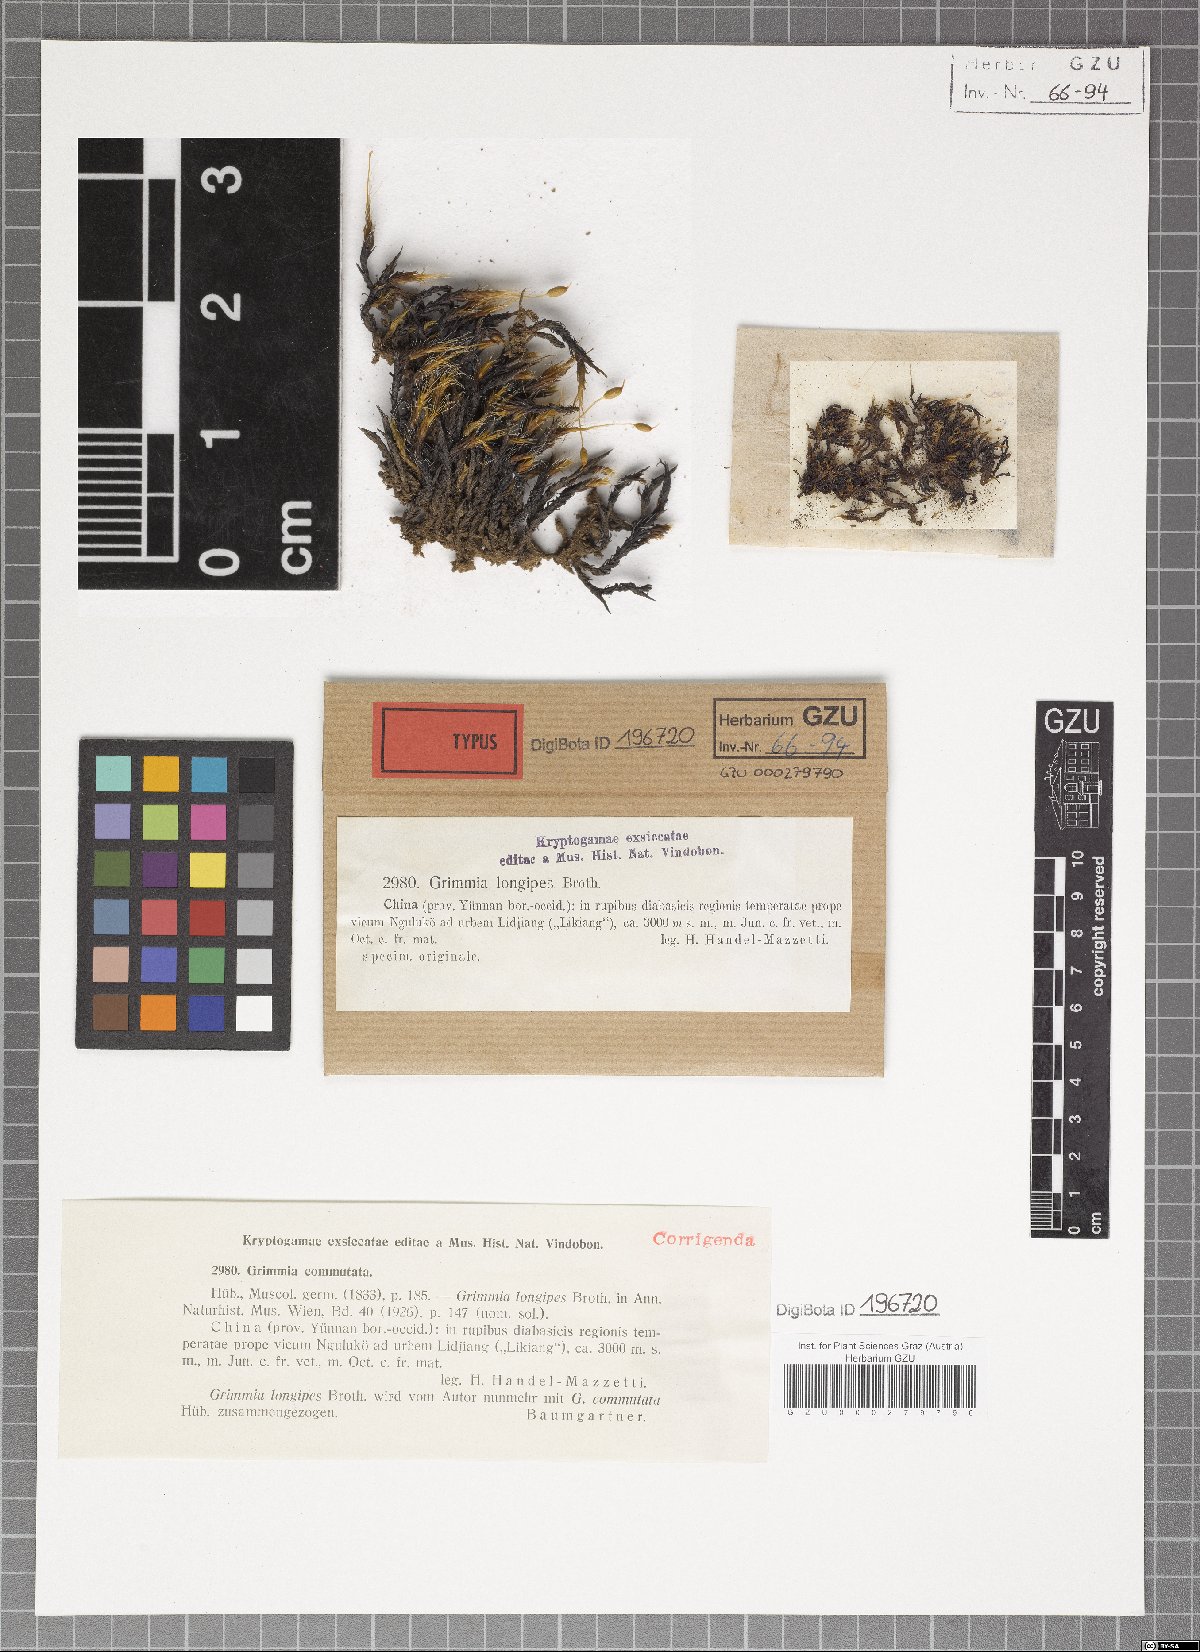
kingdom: Plantae
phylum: Bryophyta
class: Bryopsida
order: Grimmiales
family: Grimmiaceae
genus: Schistidium
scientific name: Schistidium trichodon
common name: Black bloom moss
